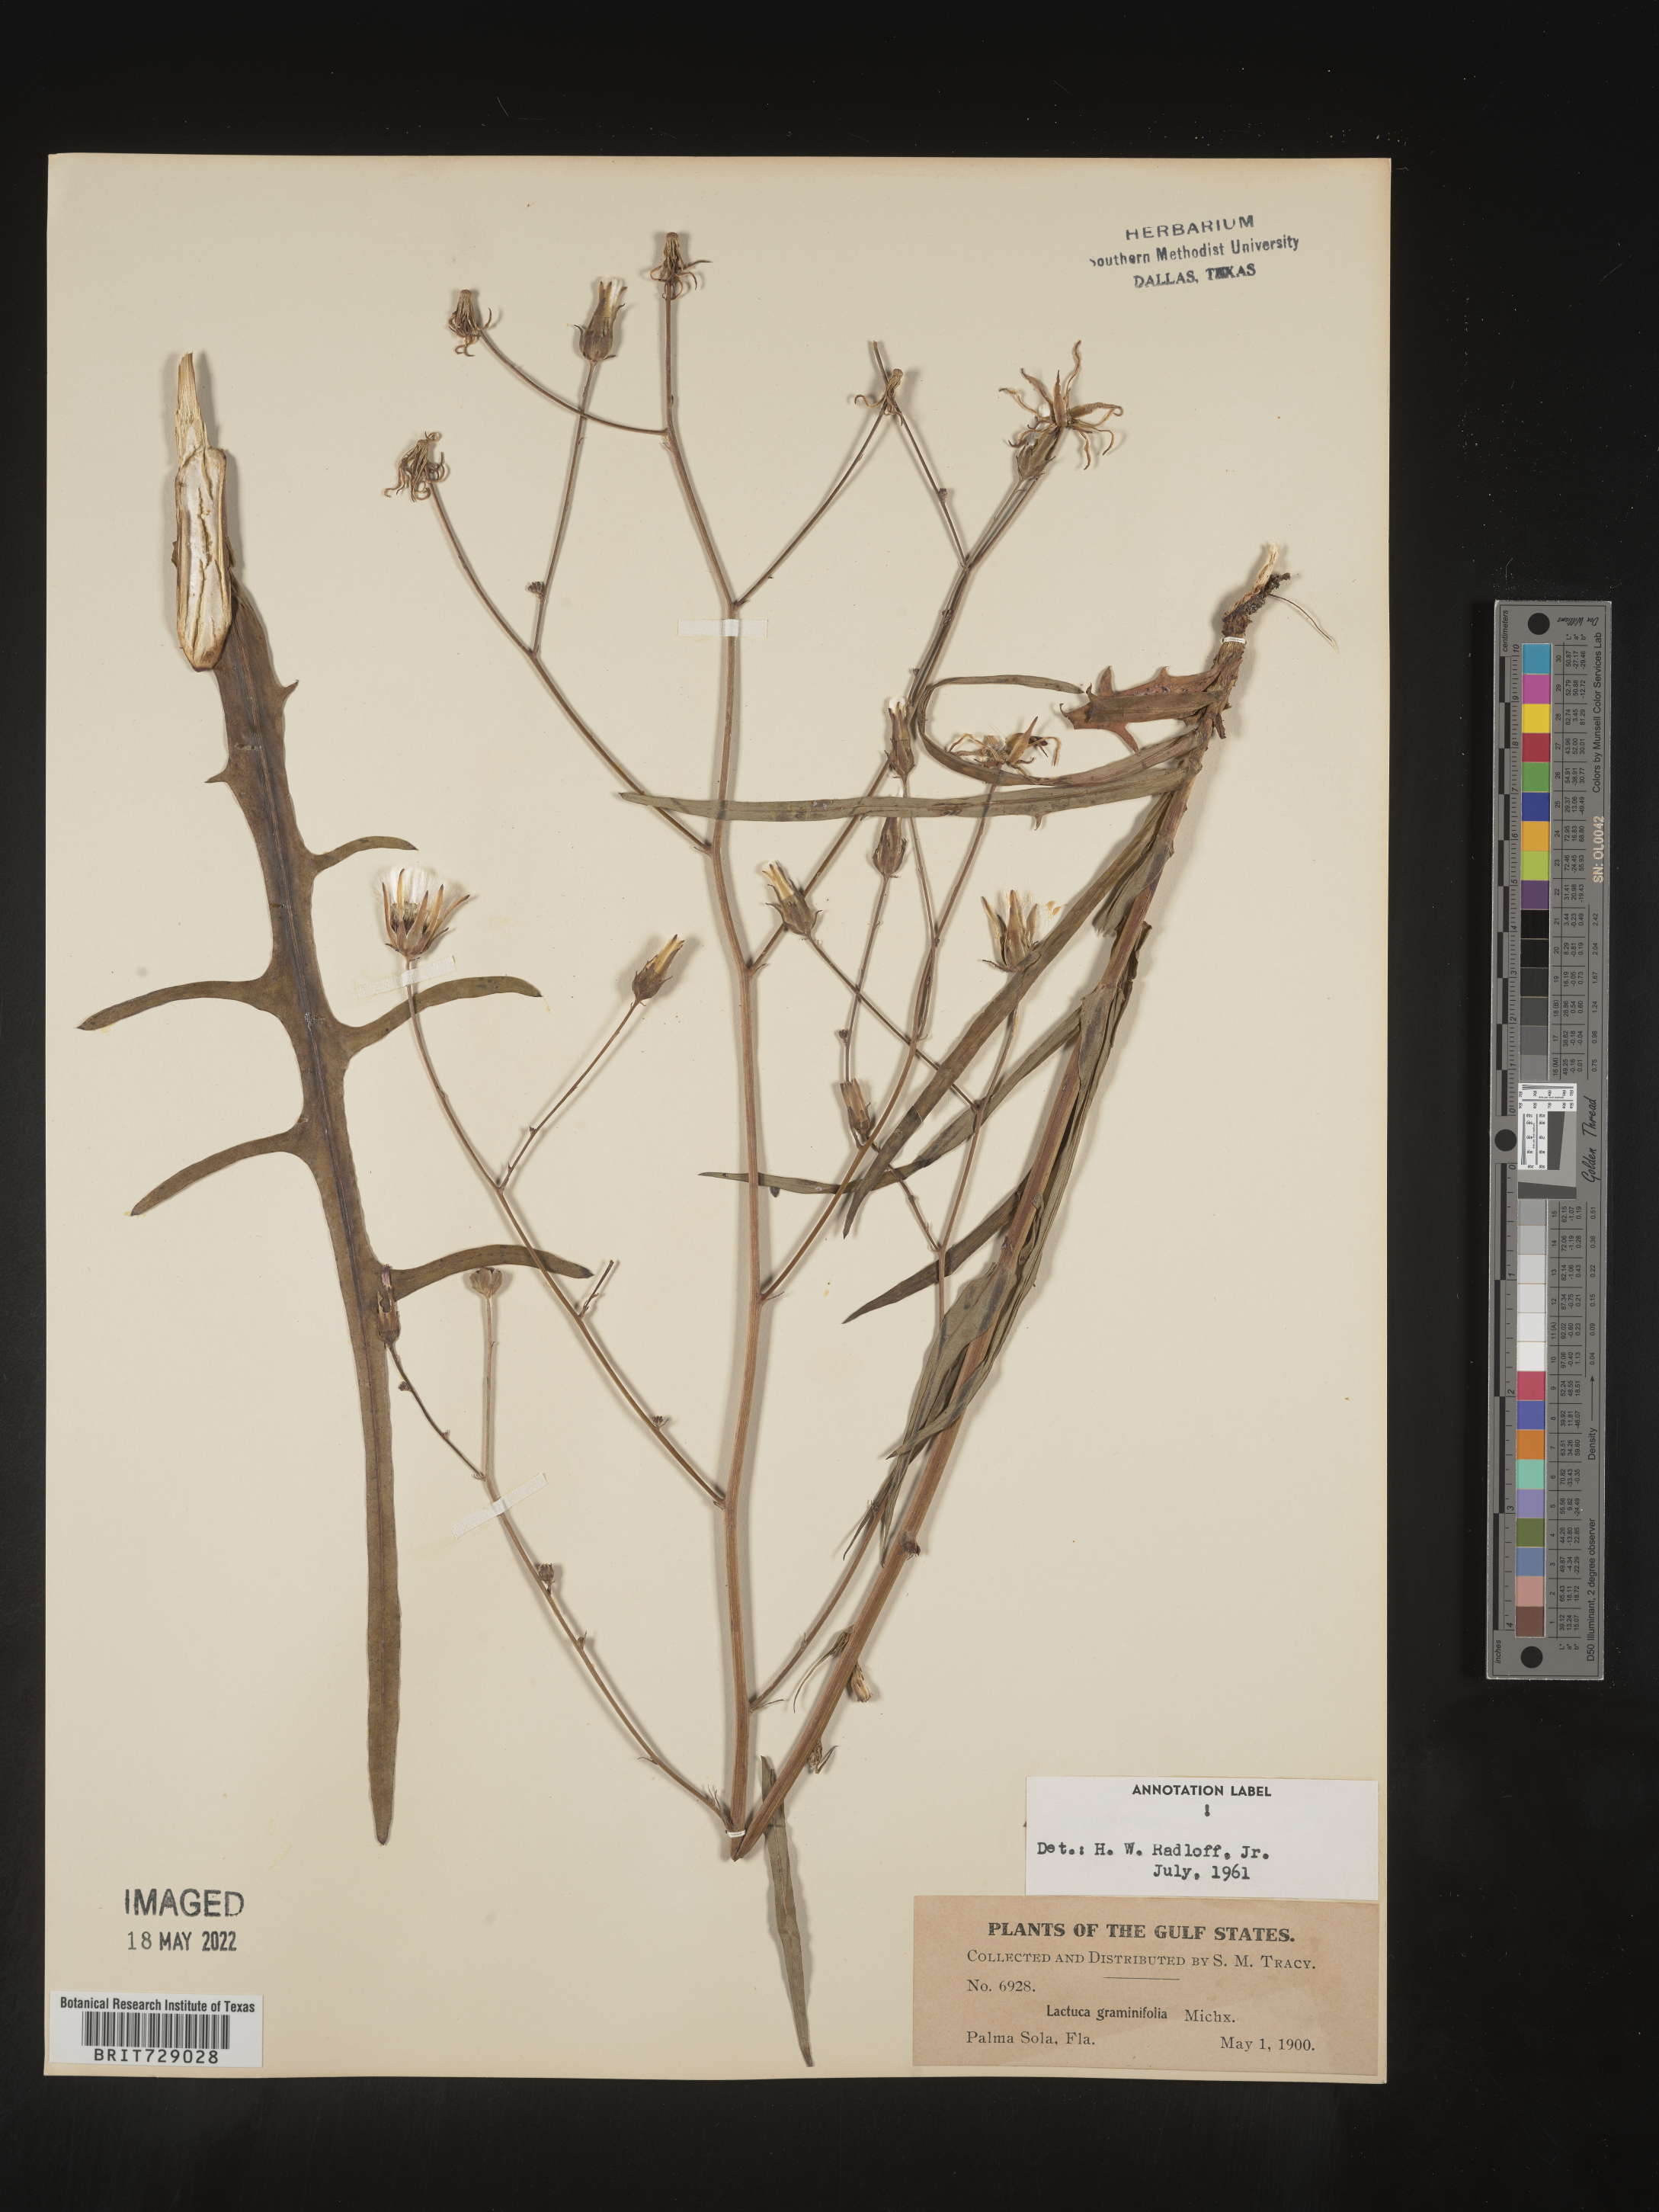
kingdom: Plantae
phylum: Tracheophyta
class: Magnoliopsida
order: Asterales
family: Asteraceae
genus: Lactuca
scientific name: Lactuca graminifolia
